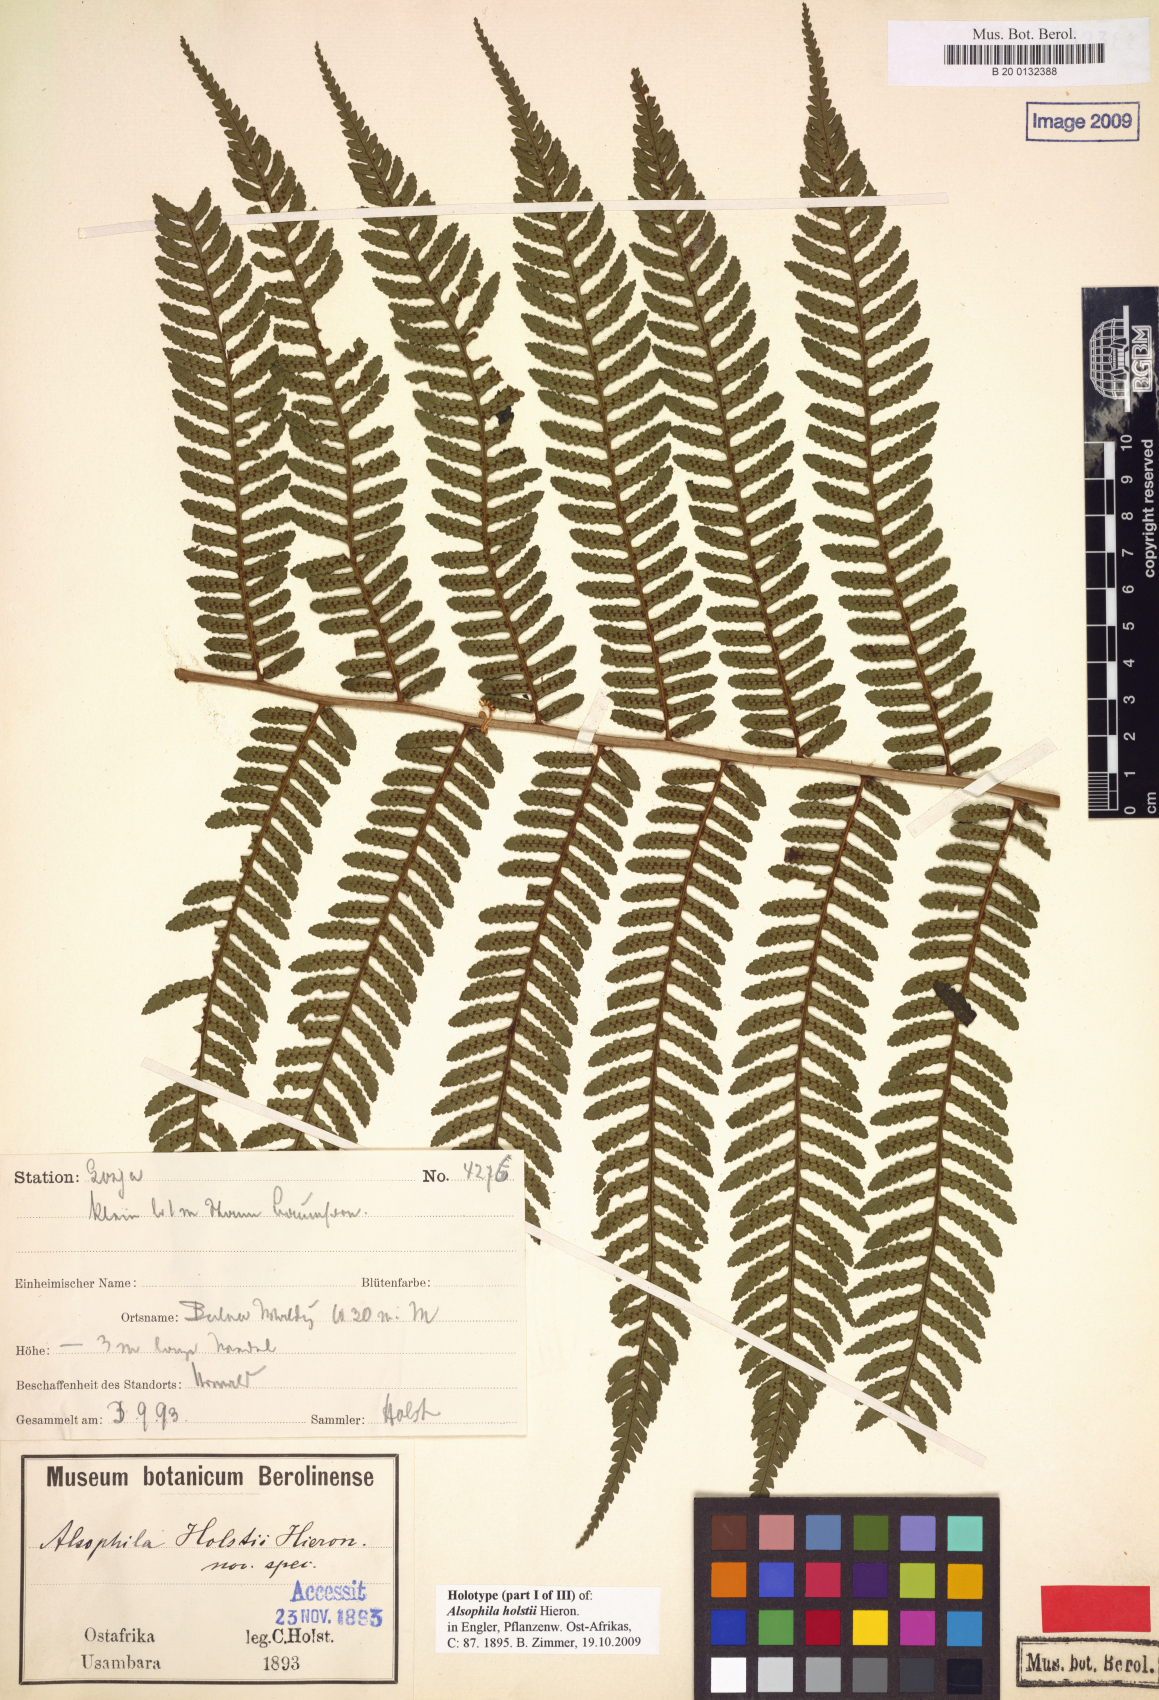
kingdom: Plantae
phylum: Tracheophyta
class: Polypodiopsida
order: Cyatheales
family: Cyatheaceae
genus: Alsophila
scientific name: Alsophila humilis
